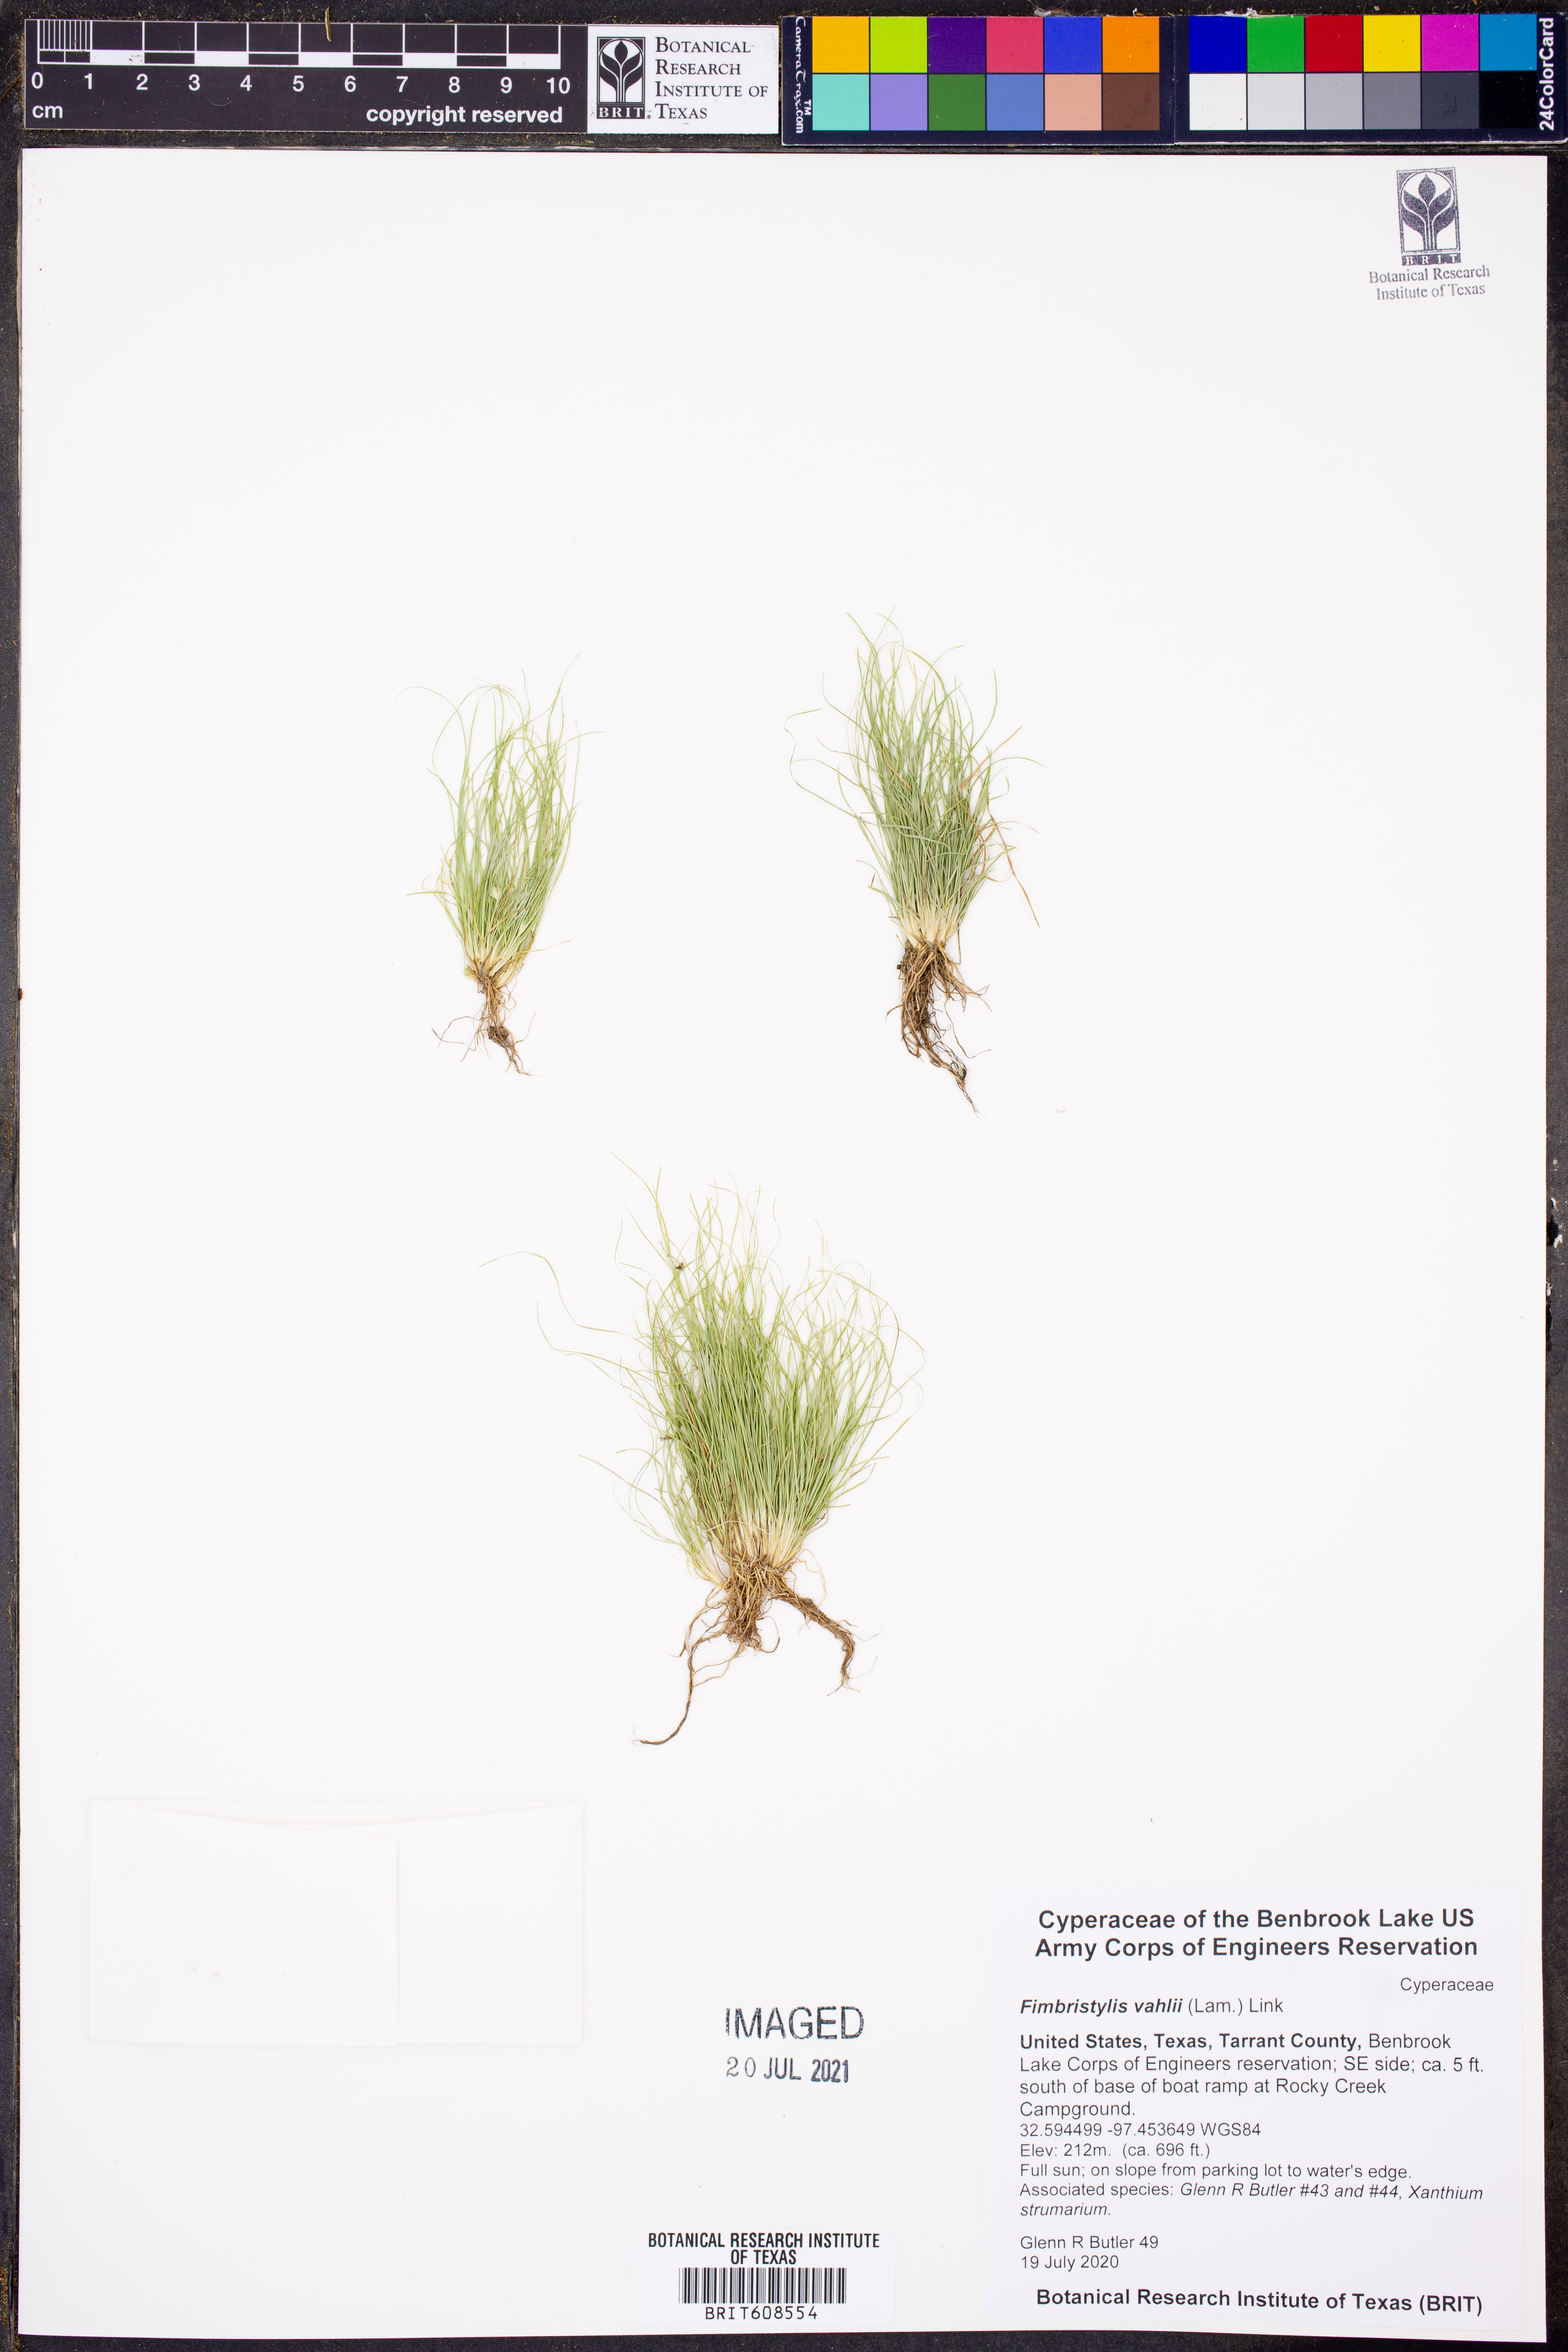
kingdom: Plantae
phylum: Tracheophyta
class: Liliopsida
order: Poales
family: Cyperaceae
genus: Fimbristylis
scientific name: Fimbristylis vahlii
